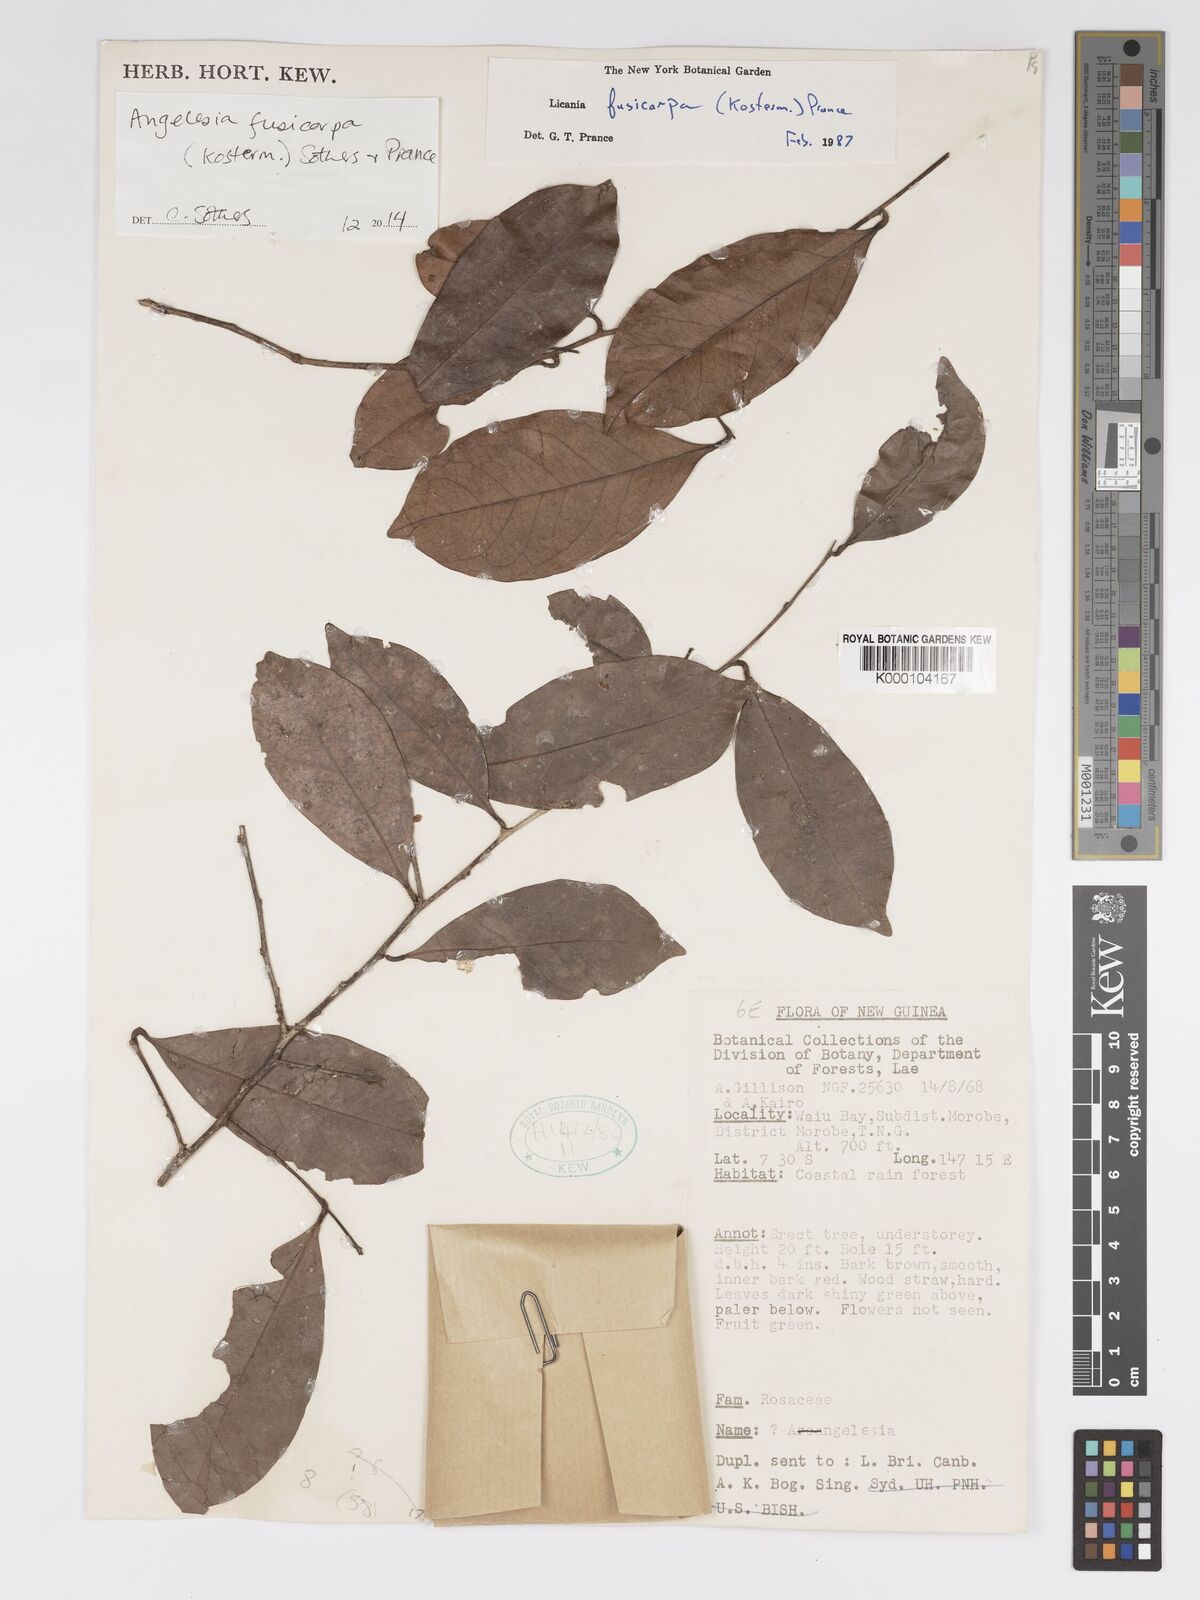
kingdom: Plantae
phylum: Tracheophyta
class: Magnoliopsida
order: Malpighiales
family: Chrysobalanaceae
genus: Angelesia
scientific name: Angelesia fusicarpa
